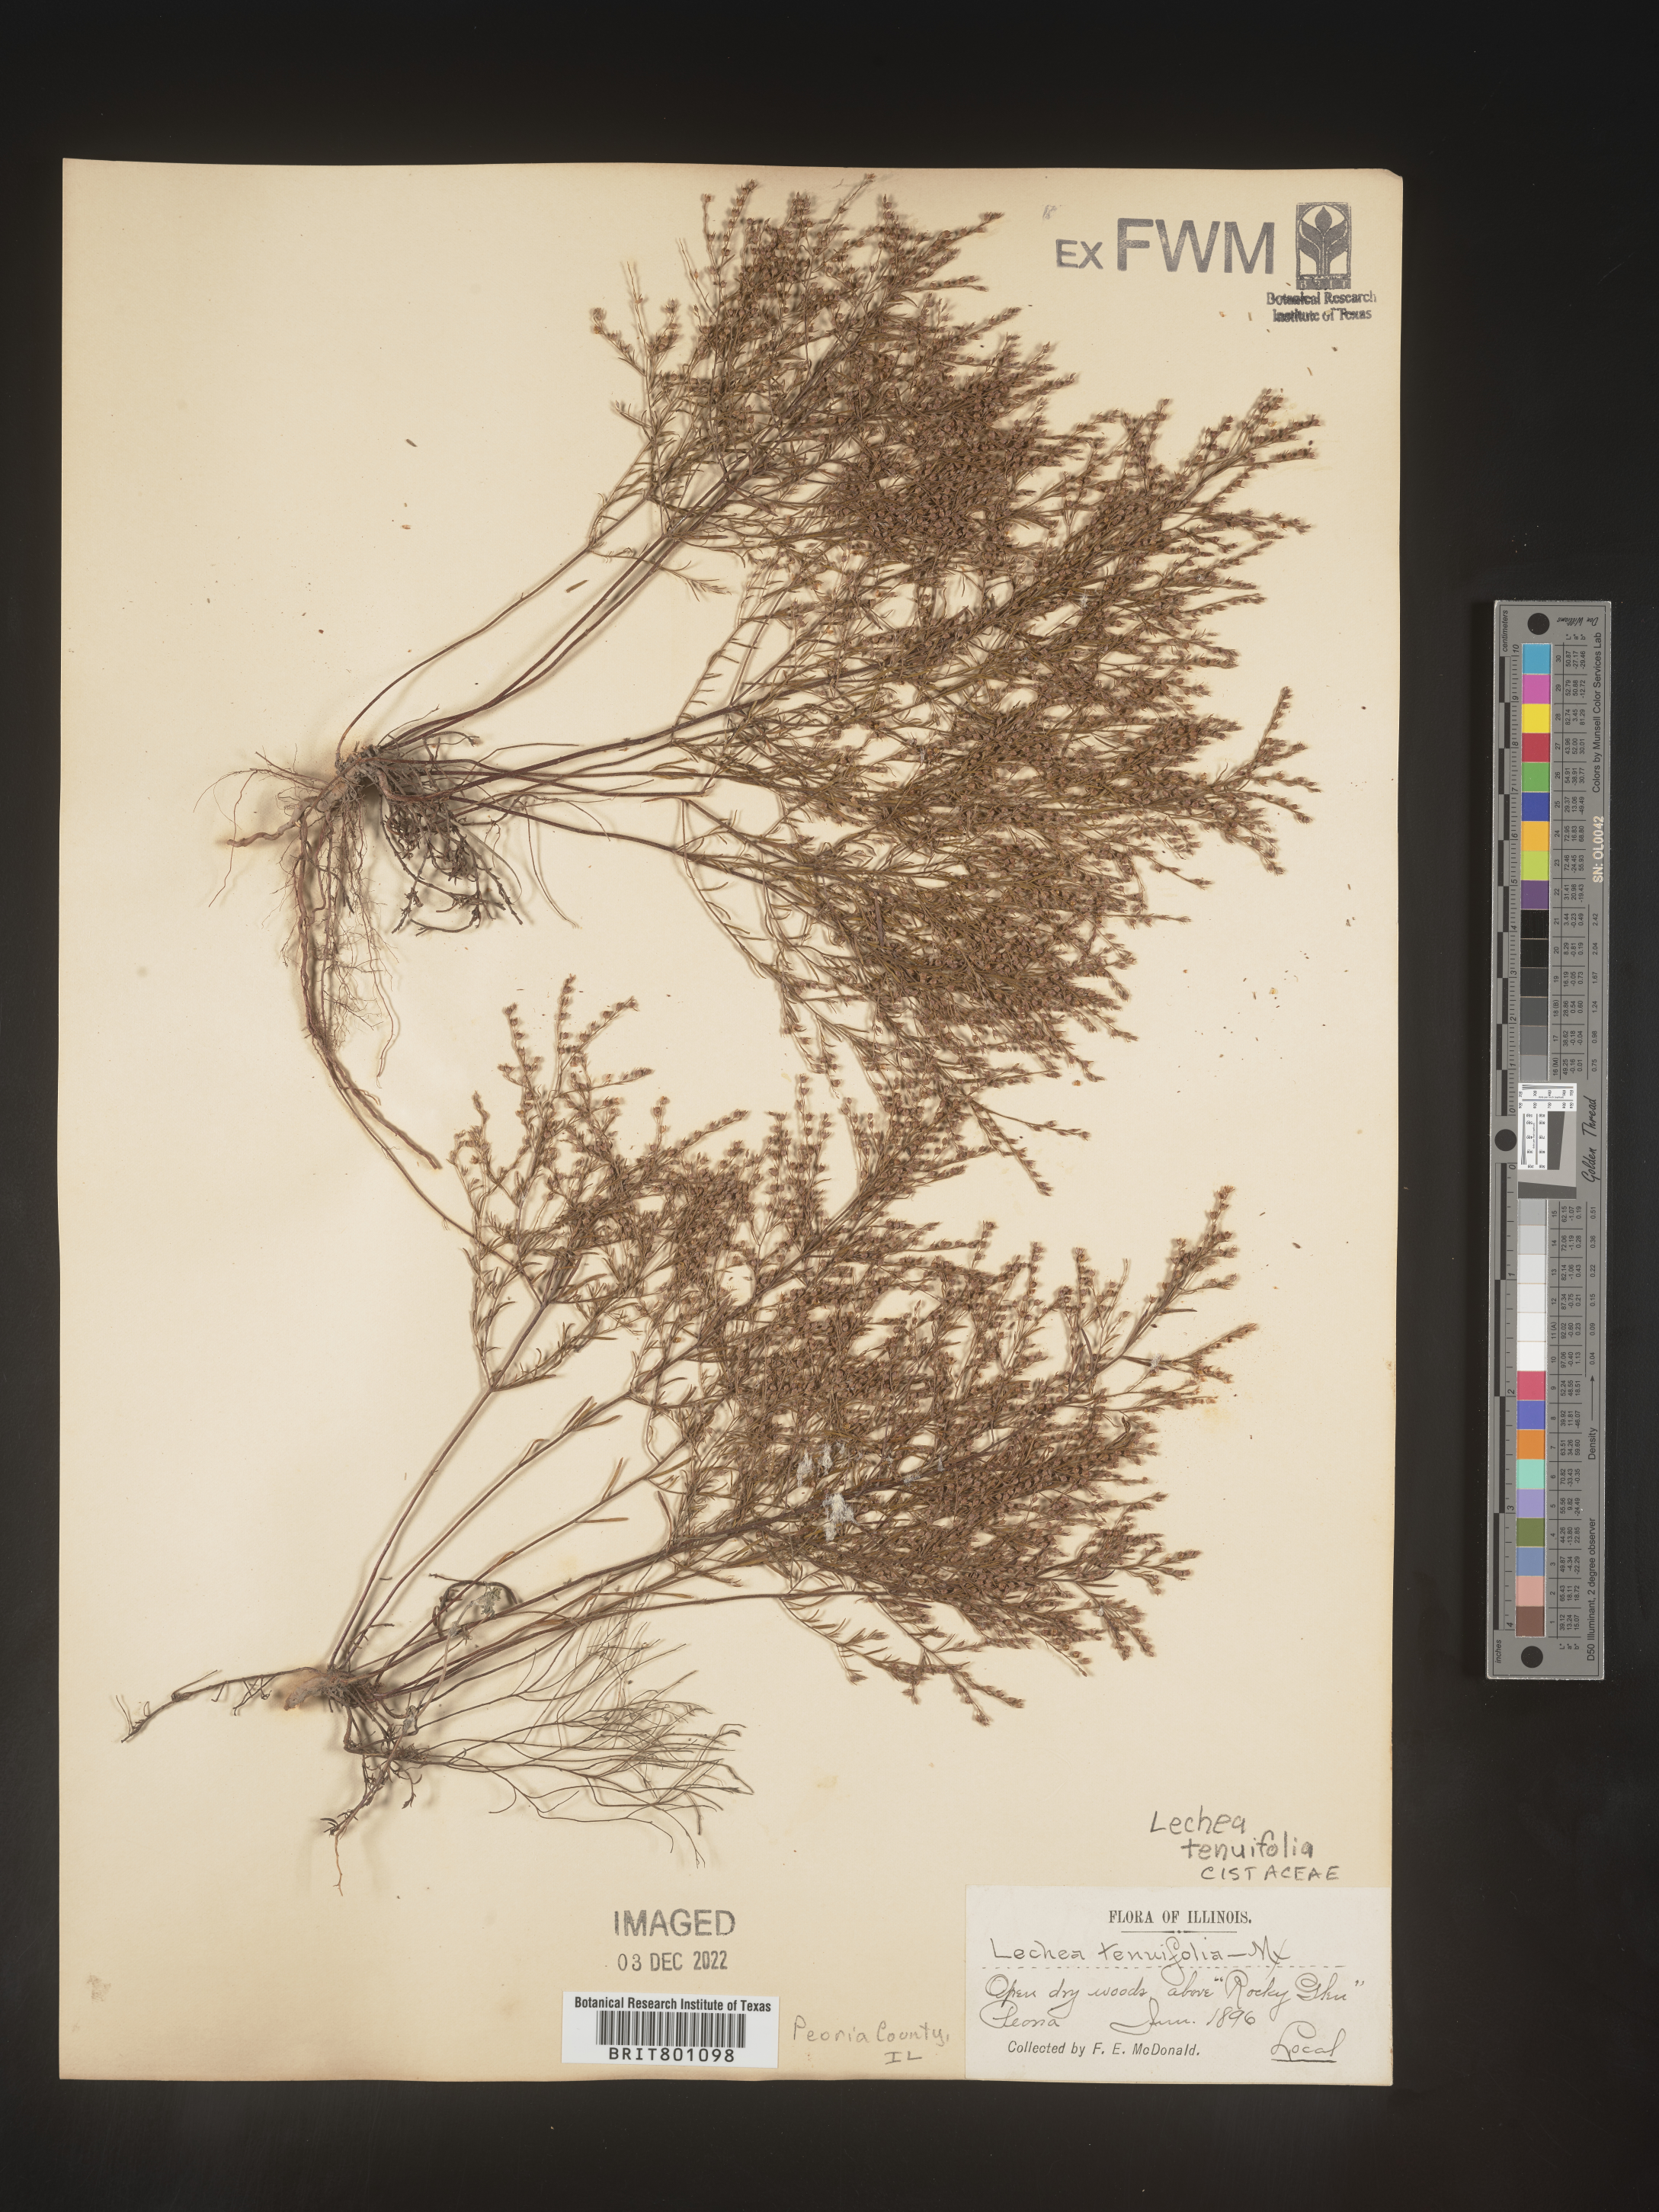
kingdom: Plantae
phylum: Tracheophyta
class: Magnoliopsida
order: Malvales
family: Cistaceae
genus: Lechea
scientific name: Lechea tenuifolia
